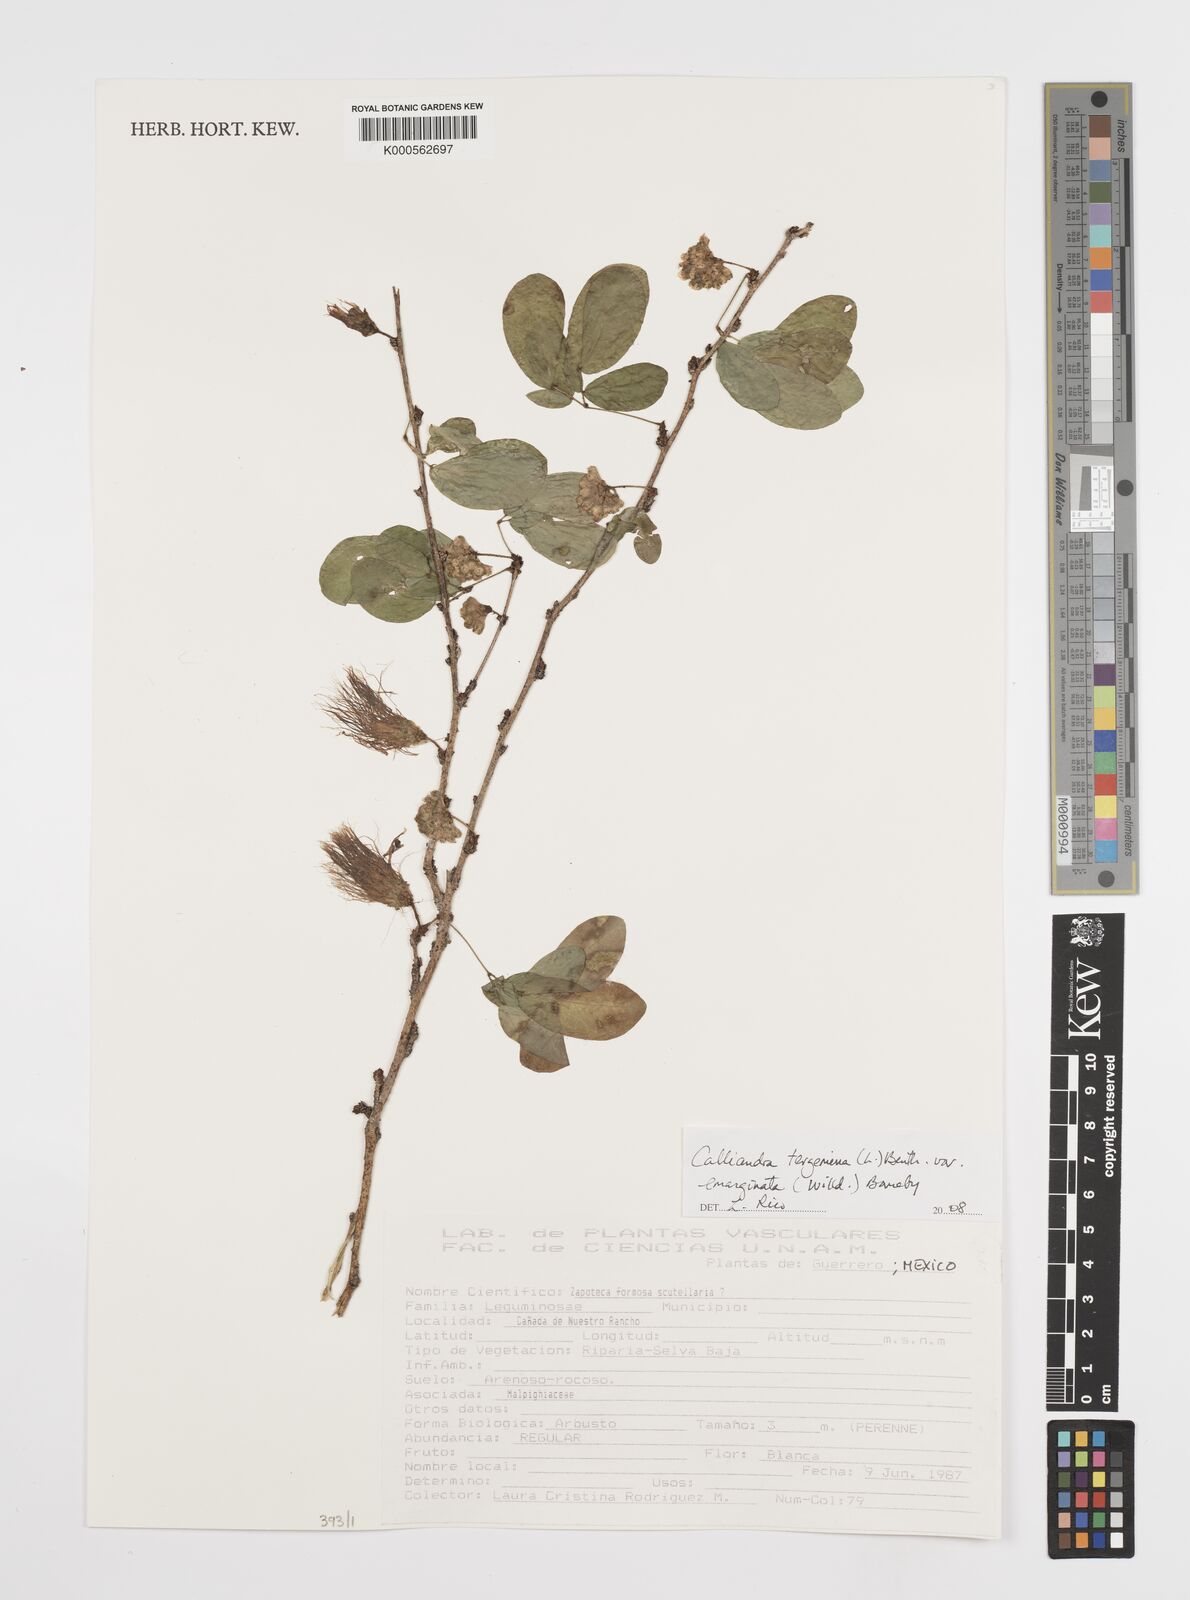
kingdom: Plantae
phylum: Tracheophyta
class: Magnoliopsida
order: Fabales
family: Fabaceae
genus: Calliandra
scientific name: Calliandra tergemina
